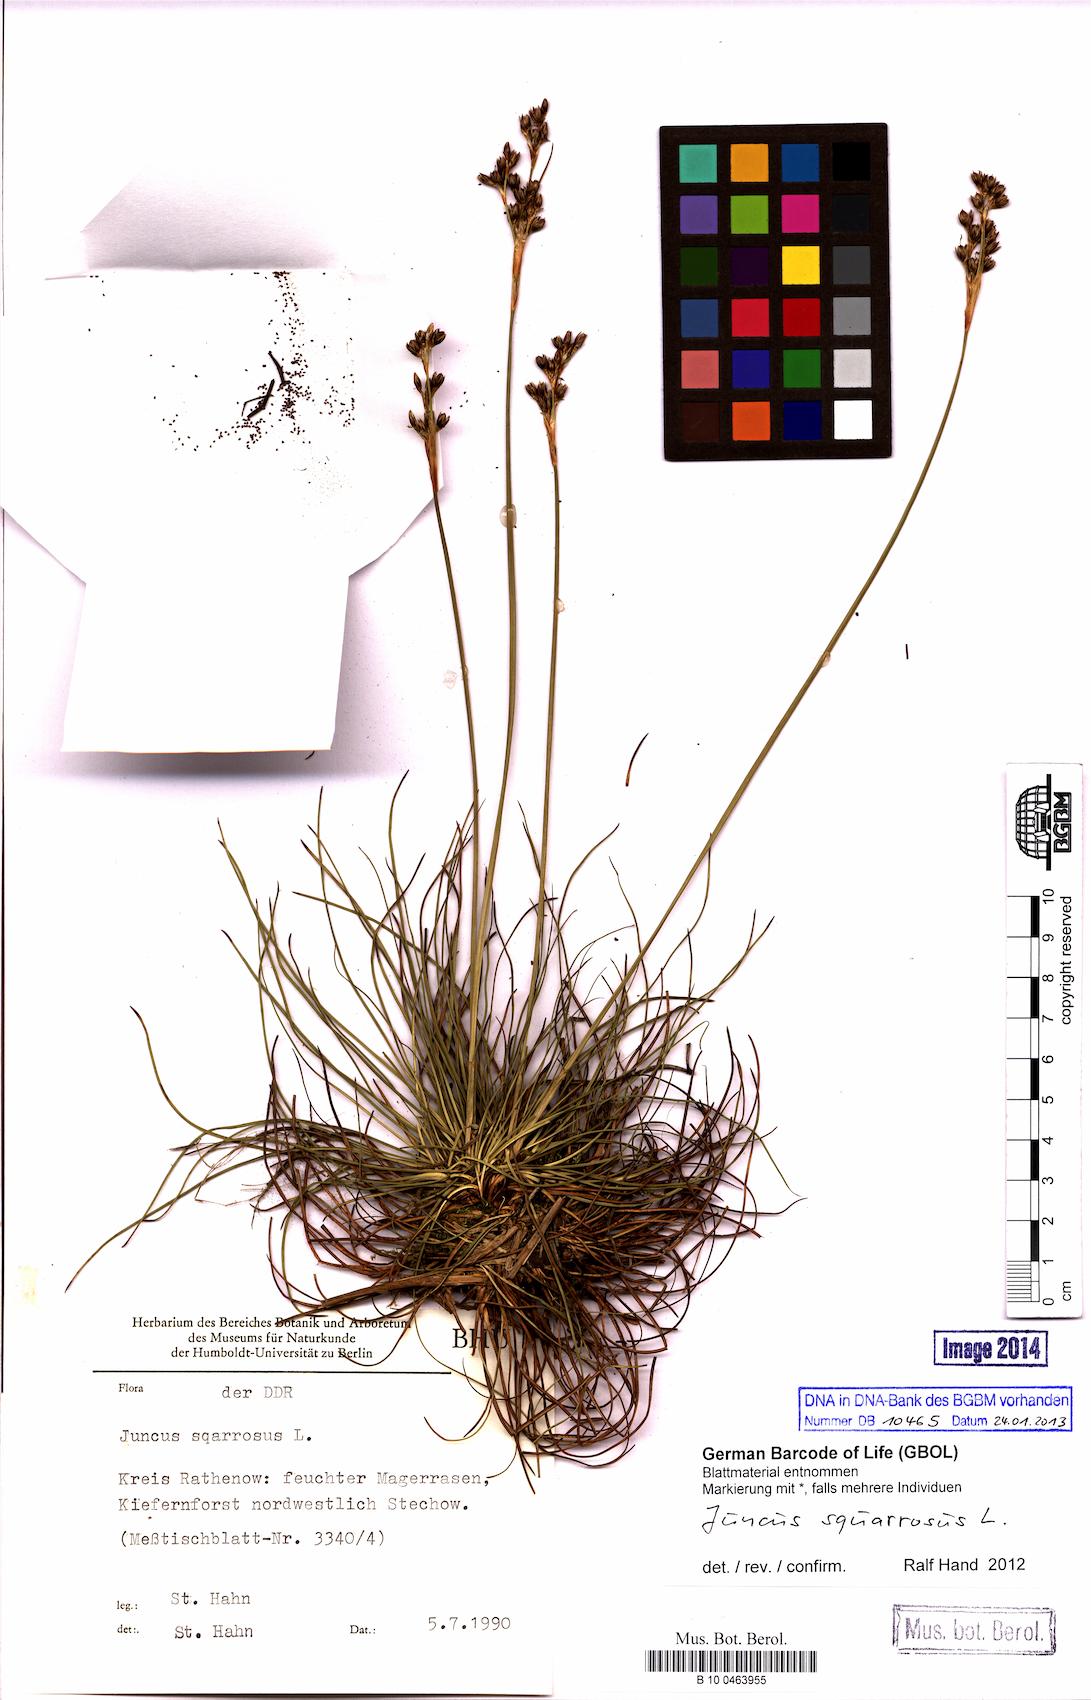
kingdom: Plantae
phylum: Tracheophyta
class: Liliopsida
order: Poales
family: Juncaceae
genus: Juncus
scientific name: Juncus squarrosus
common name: Heath rush
